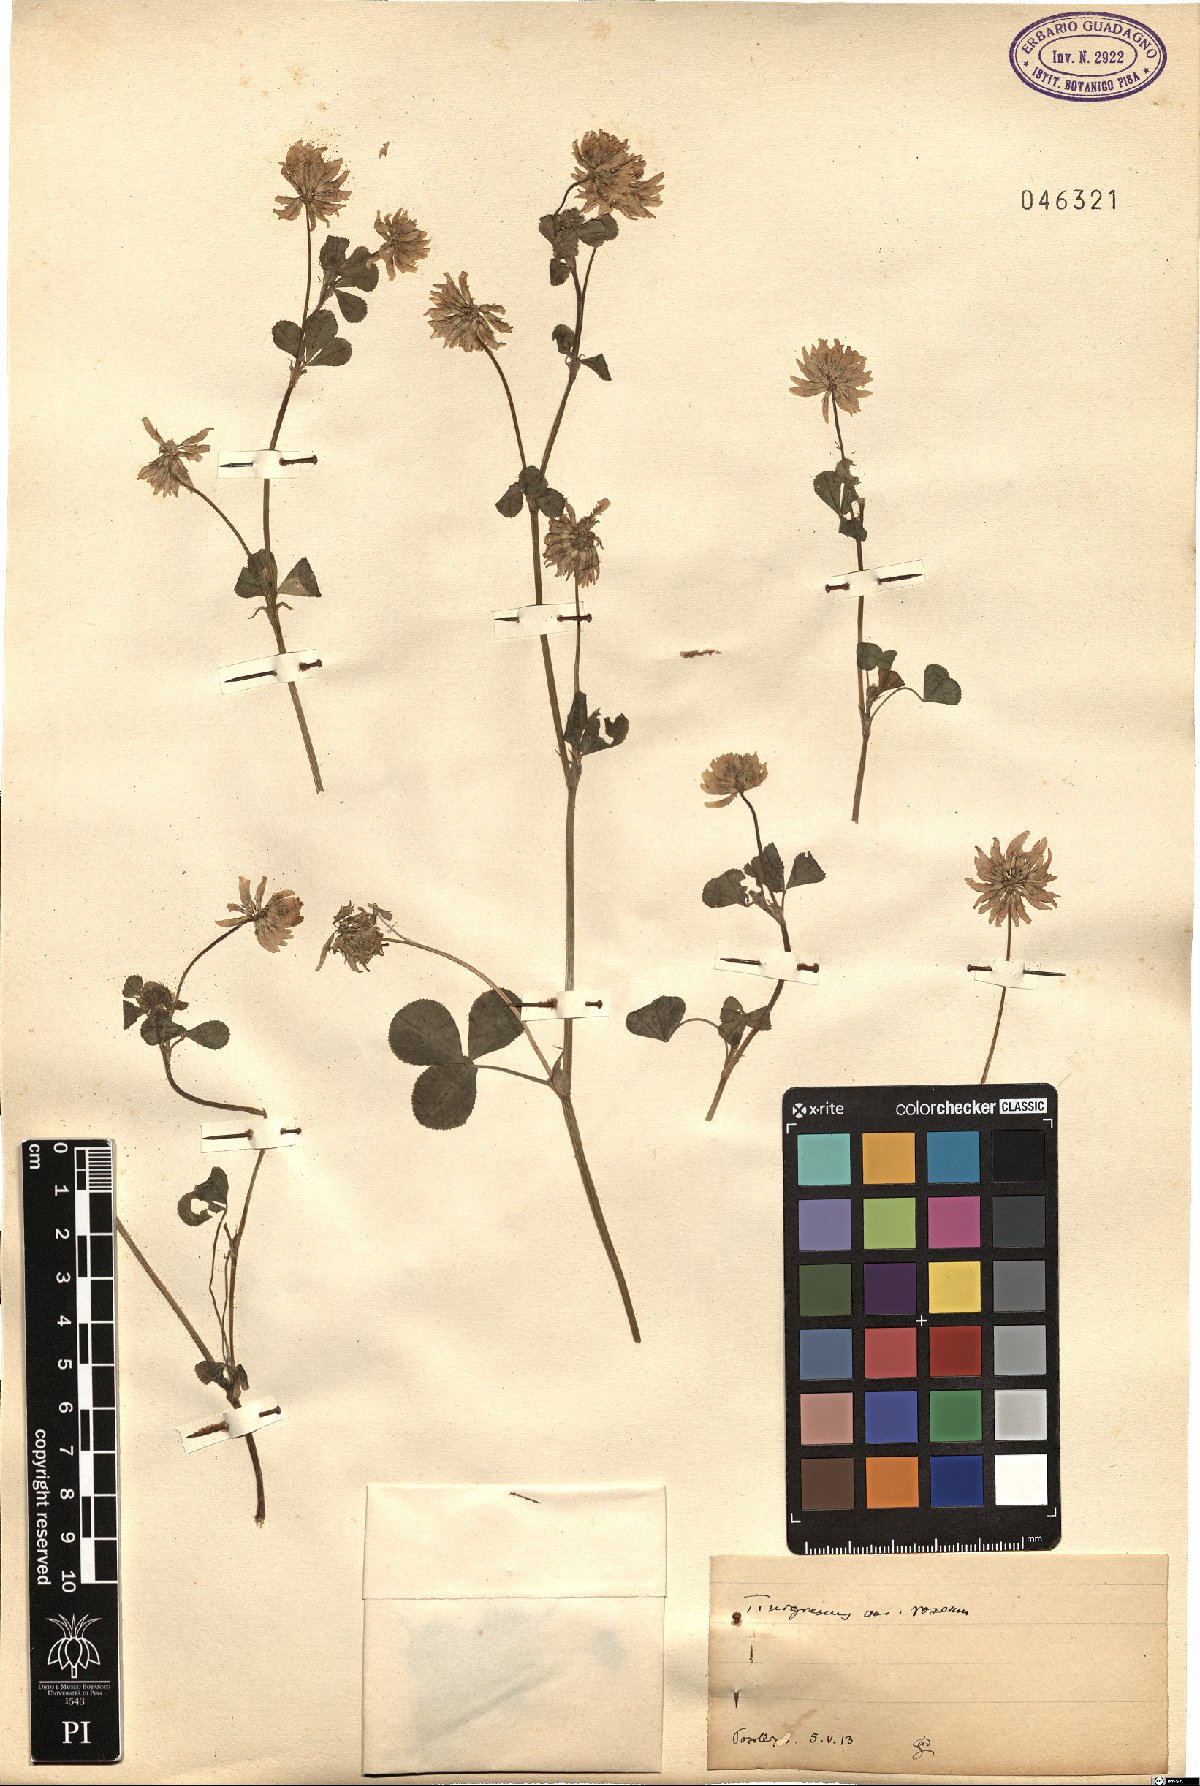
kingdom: Plantae
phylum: Tracheophyta
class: Magnoliopsida
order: Fabales
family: Fabaceae
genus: Trifolium
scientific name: Trifolium nigrescens
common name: Small white clover
